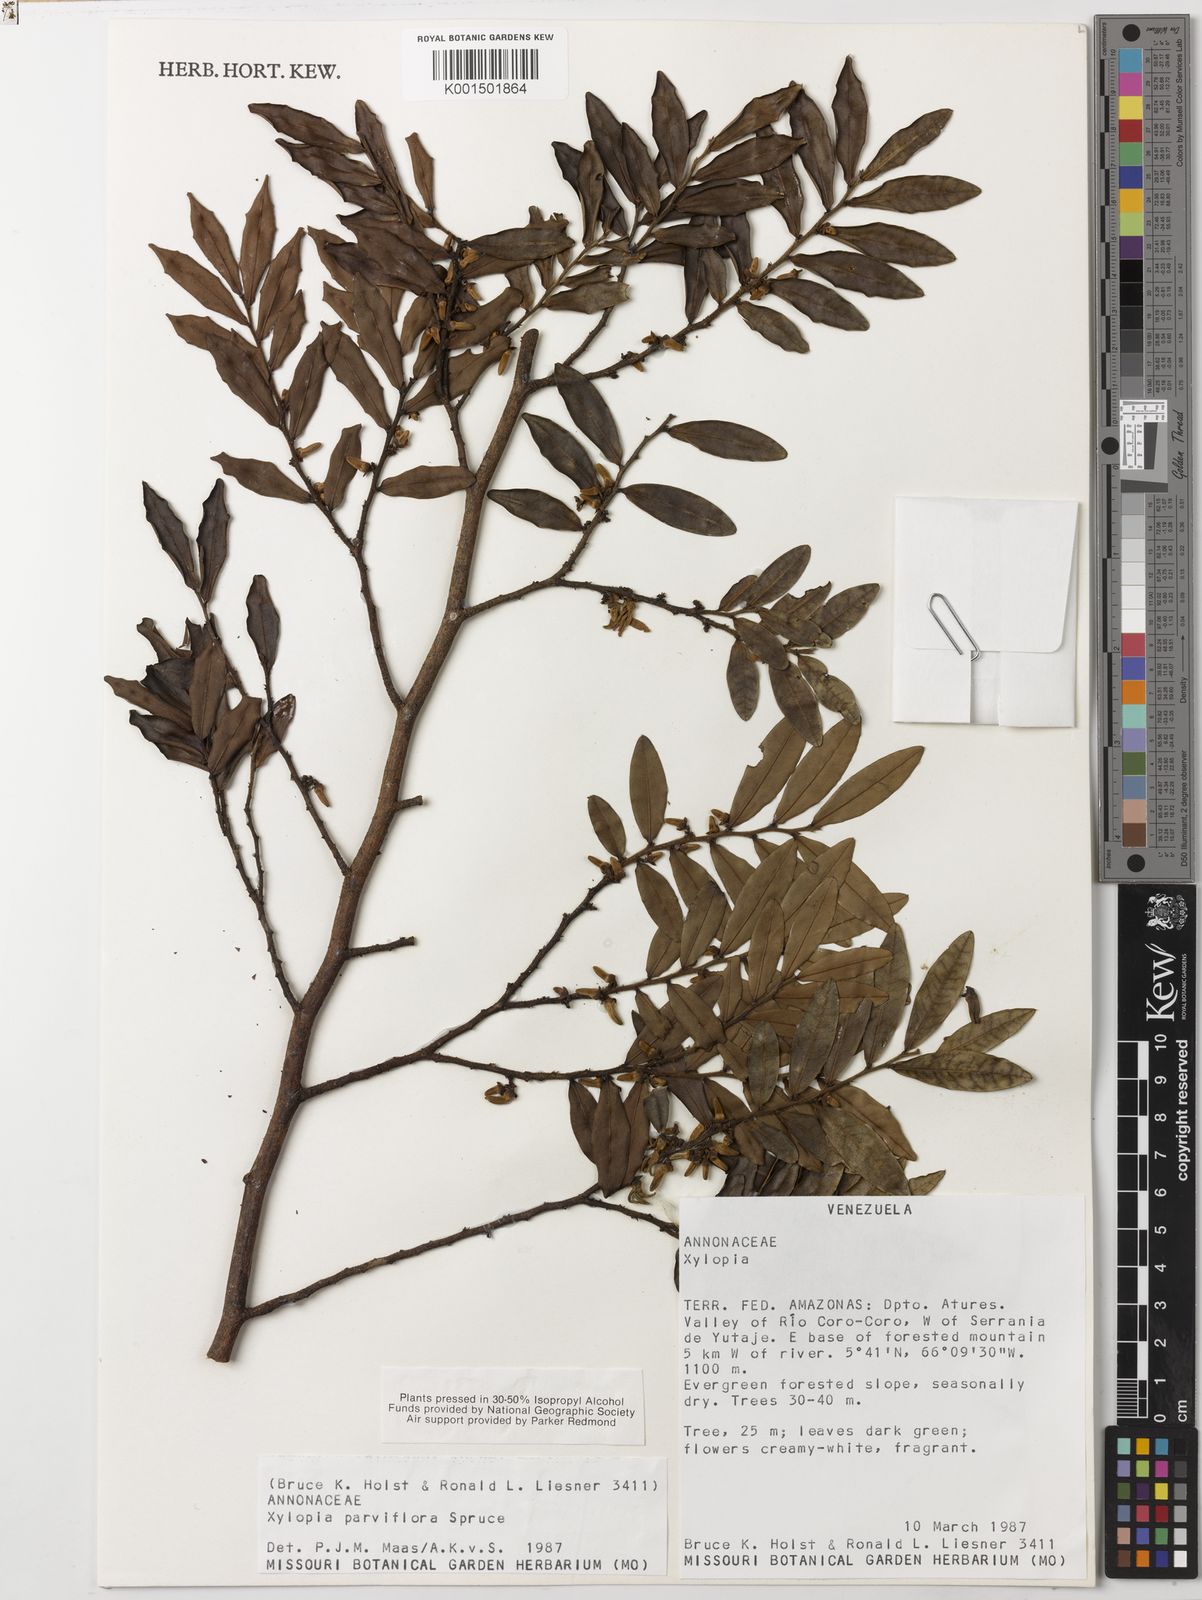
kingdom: Plantae
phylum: Tracheophyta
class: Magnoliopsida
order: Magnoliales
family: Annonaceae
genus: Xylopia
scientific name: Xylopia neglecta
